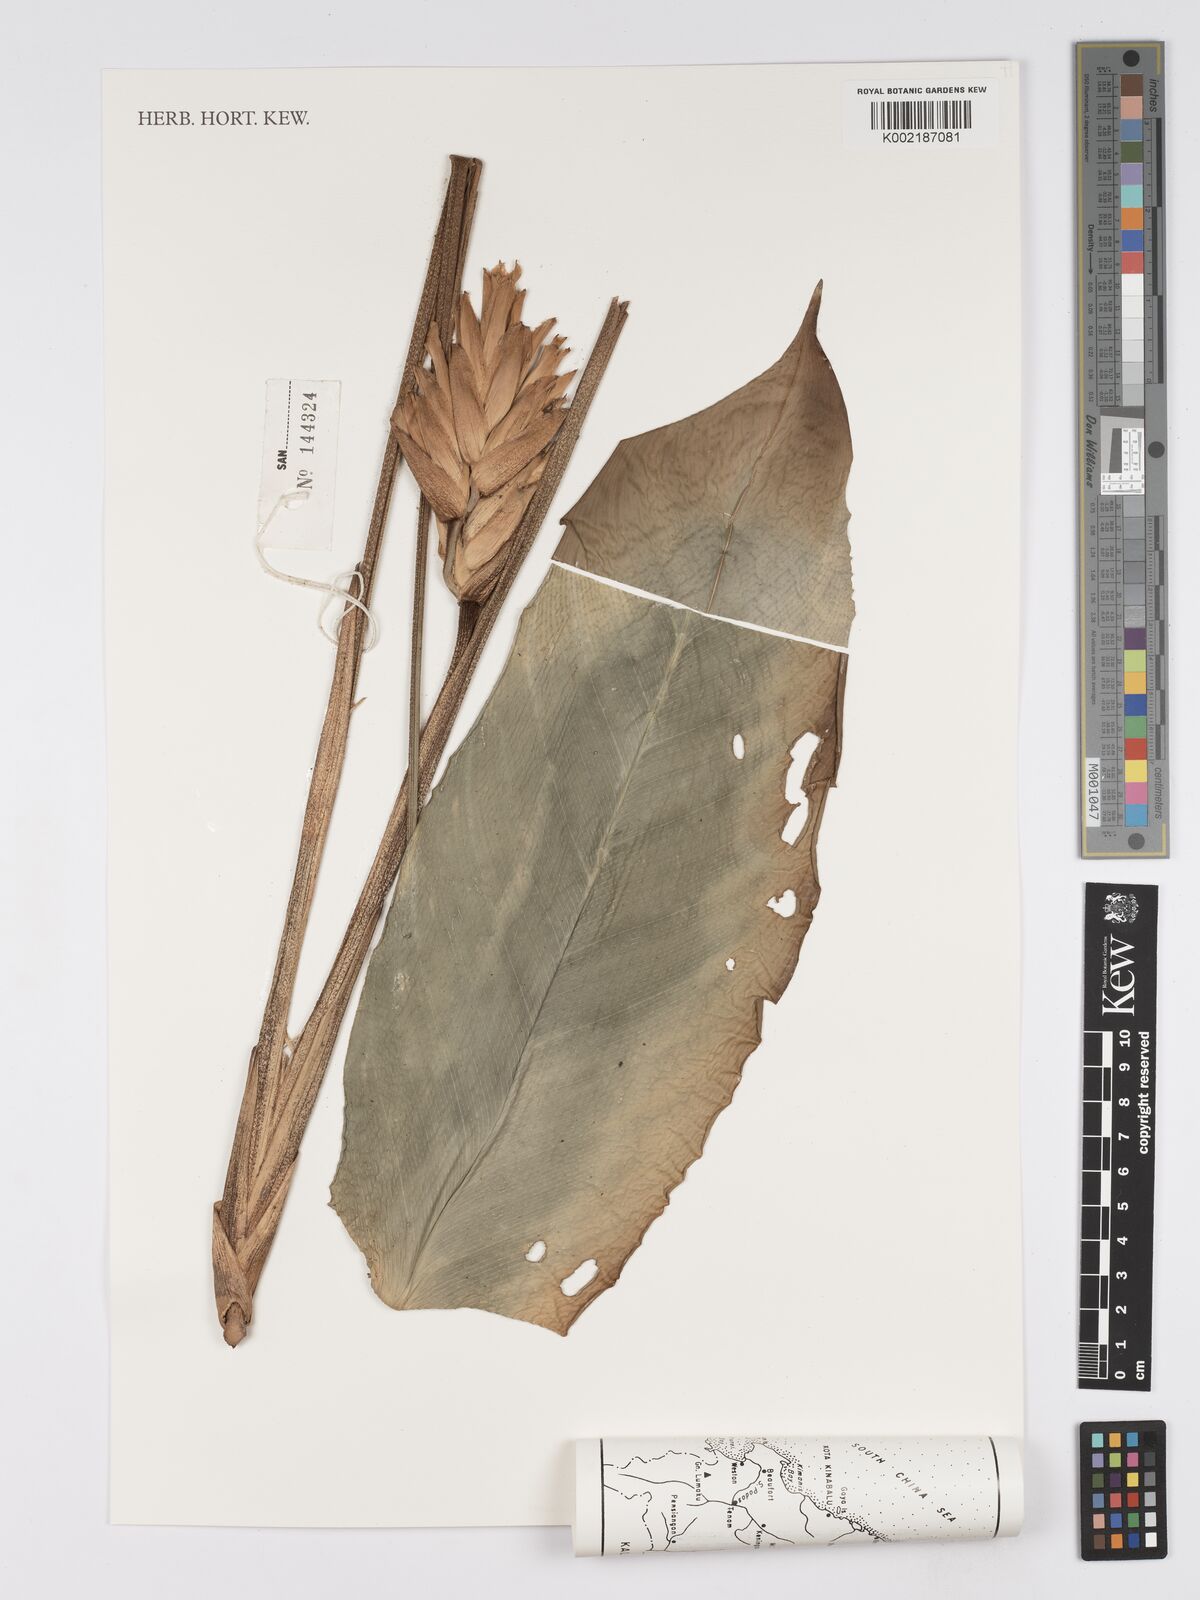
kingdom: Plantae
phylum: Tracheophyta
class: Liliopsida
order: Zingiberales
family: Marantaceae
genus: Phrynium
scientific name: Phrynium maximum
